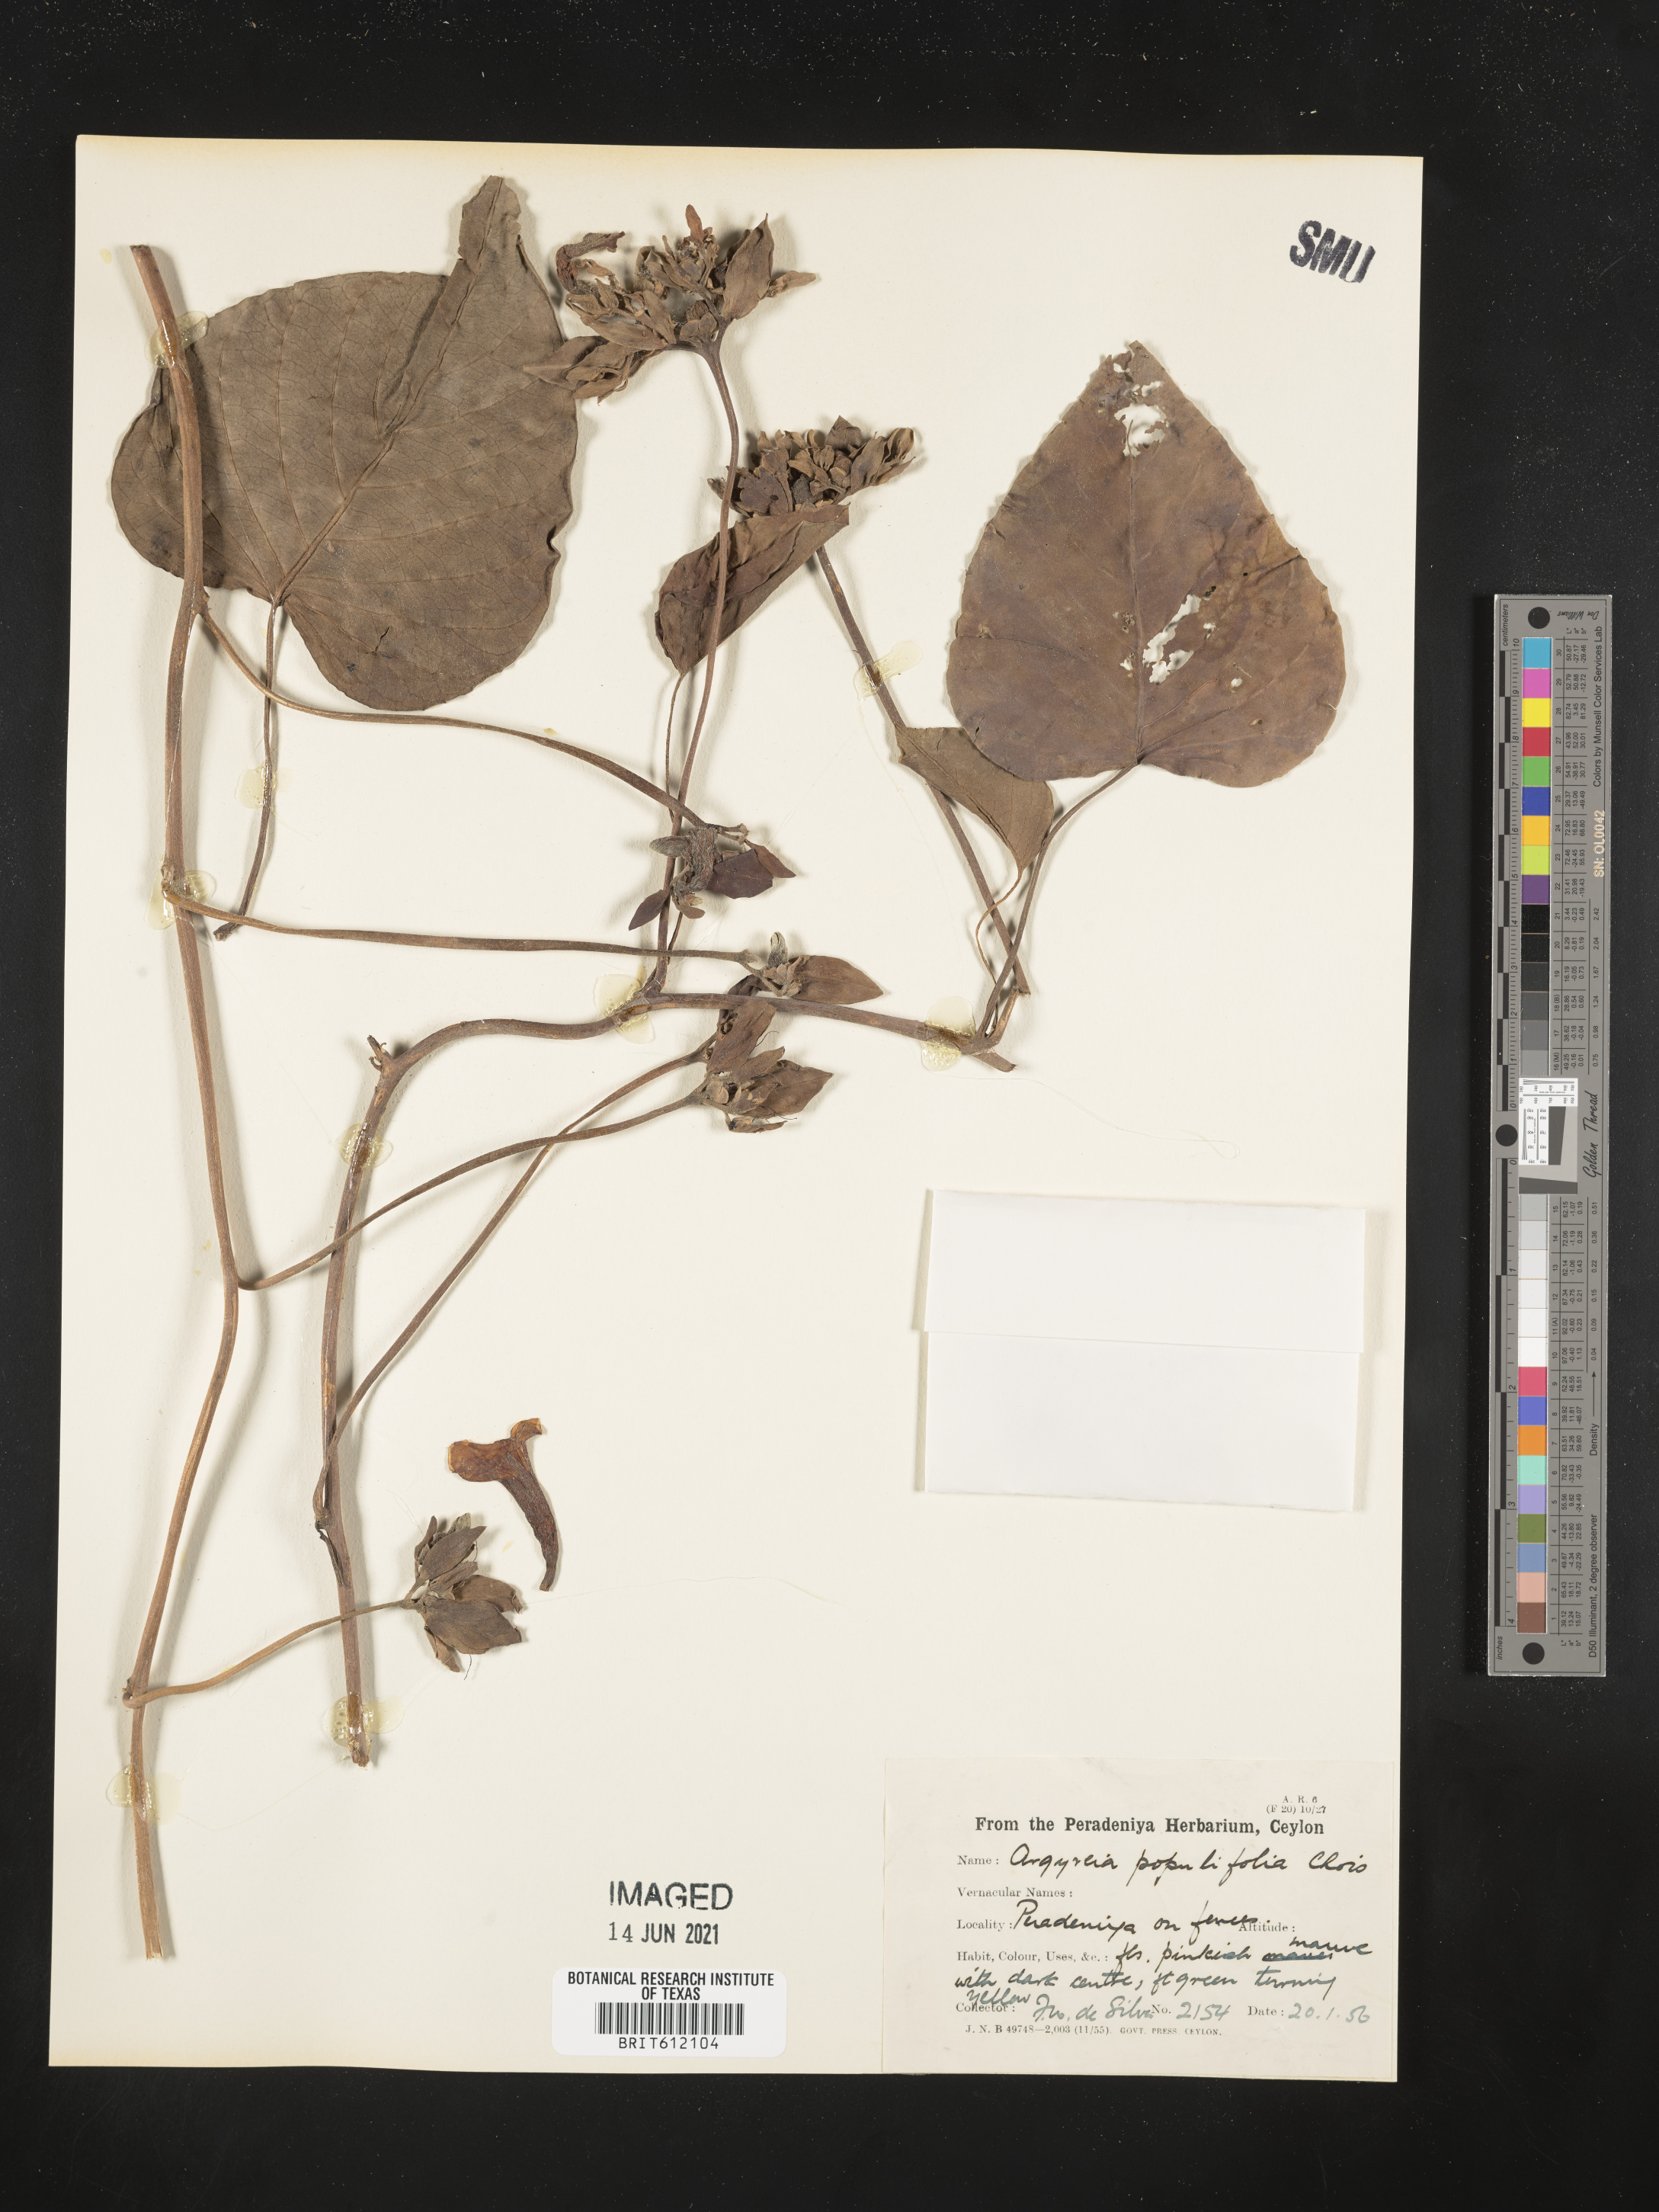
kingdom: Plantae
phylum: Tracheophyta
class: Magnoliopsida
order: Solanales
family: Convolvulaceae
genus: Argyreia
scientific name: Argyreia
